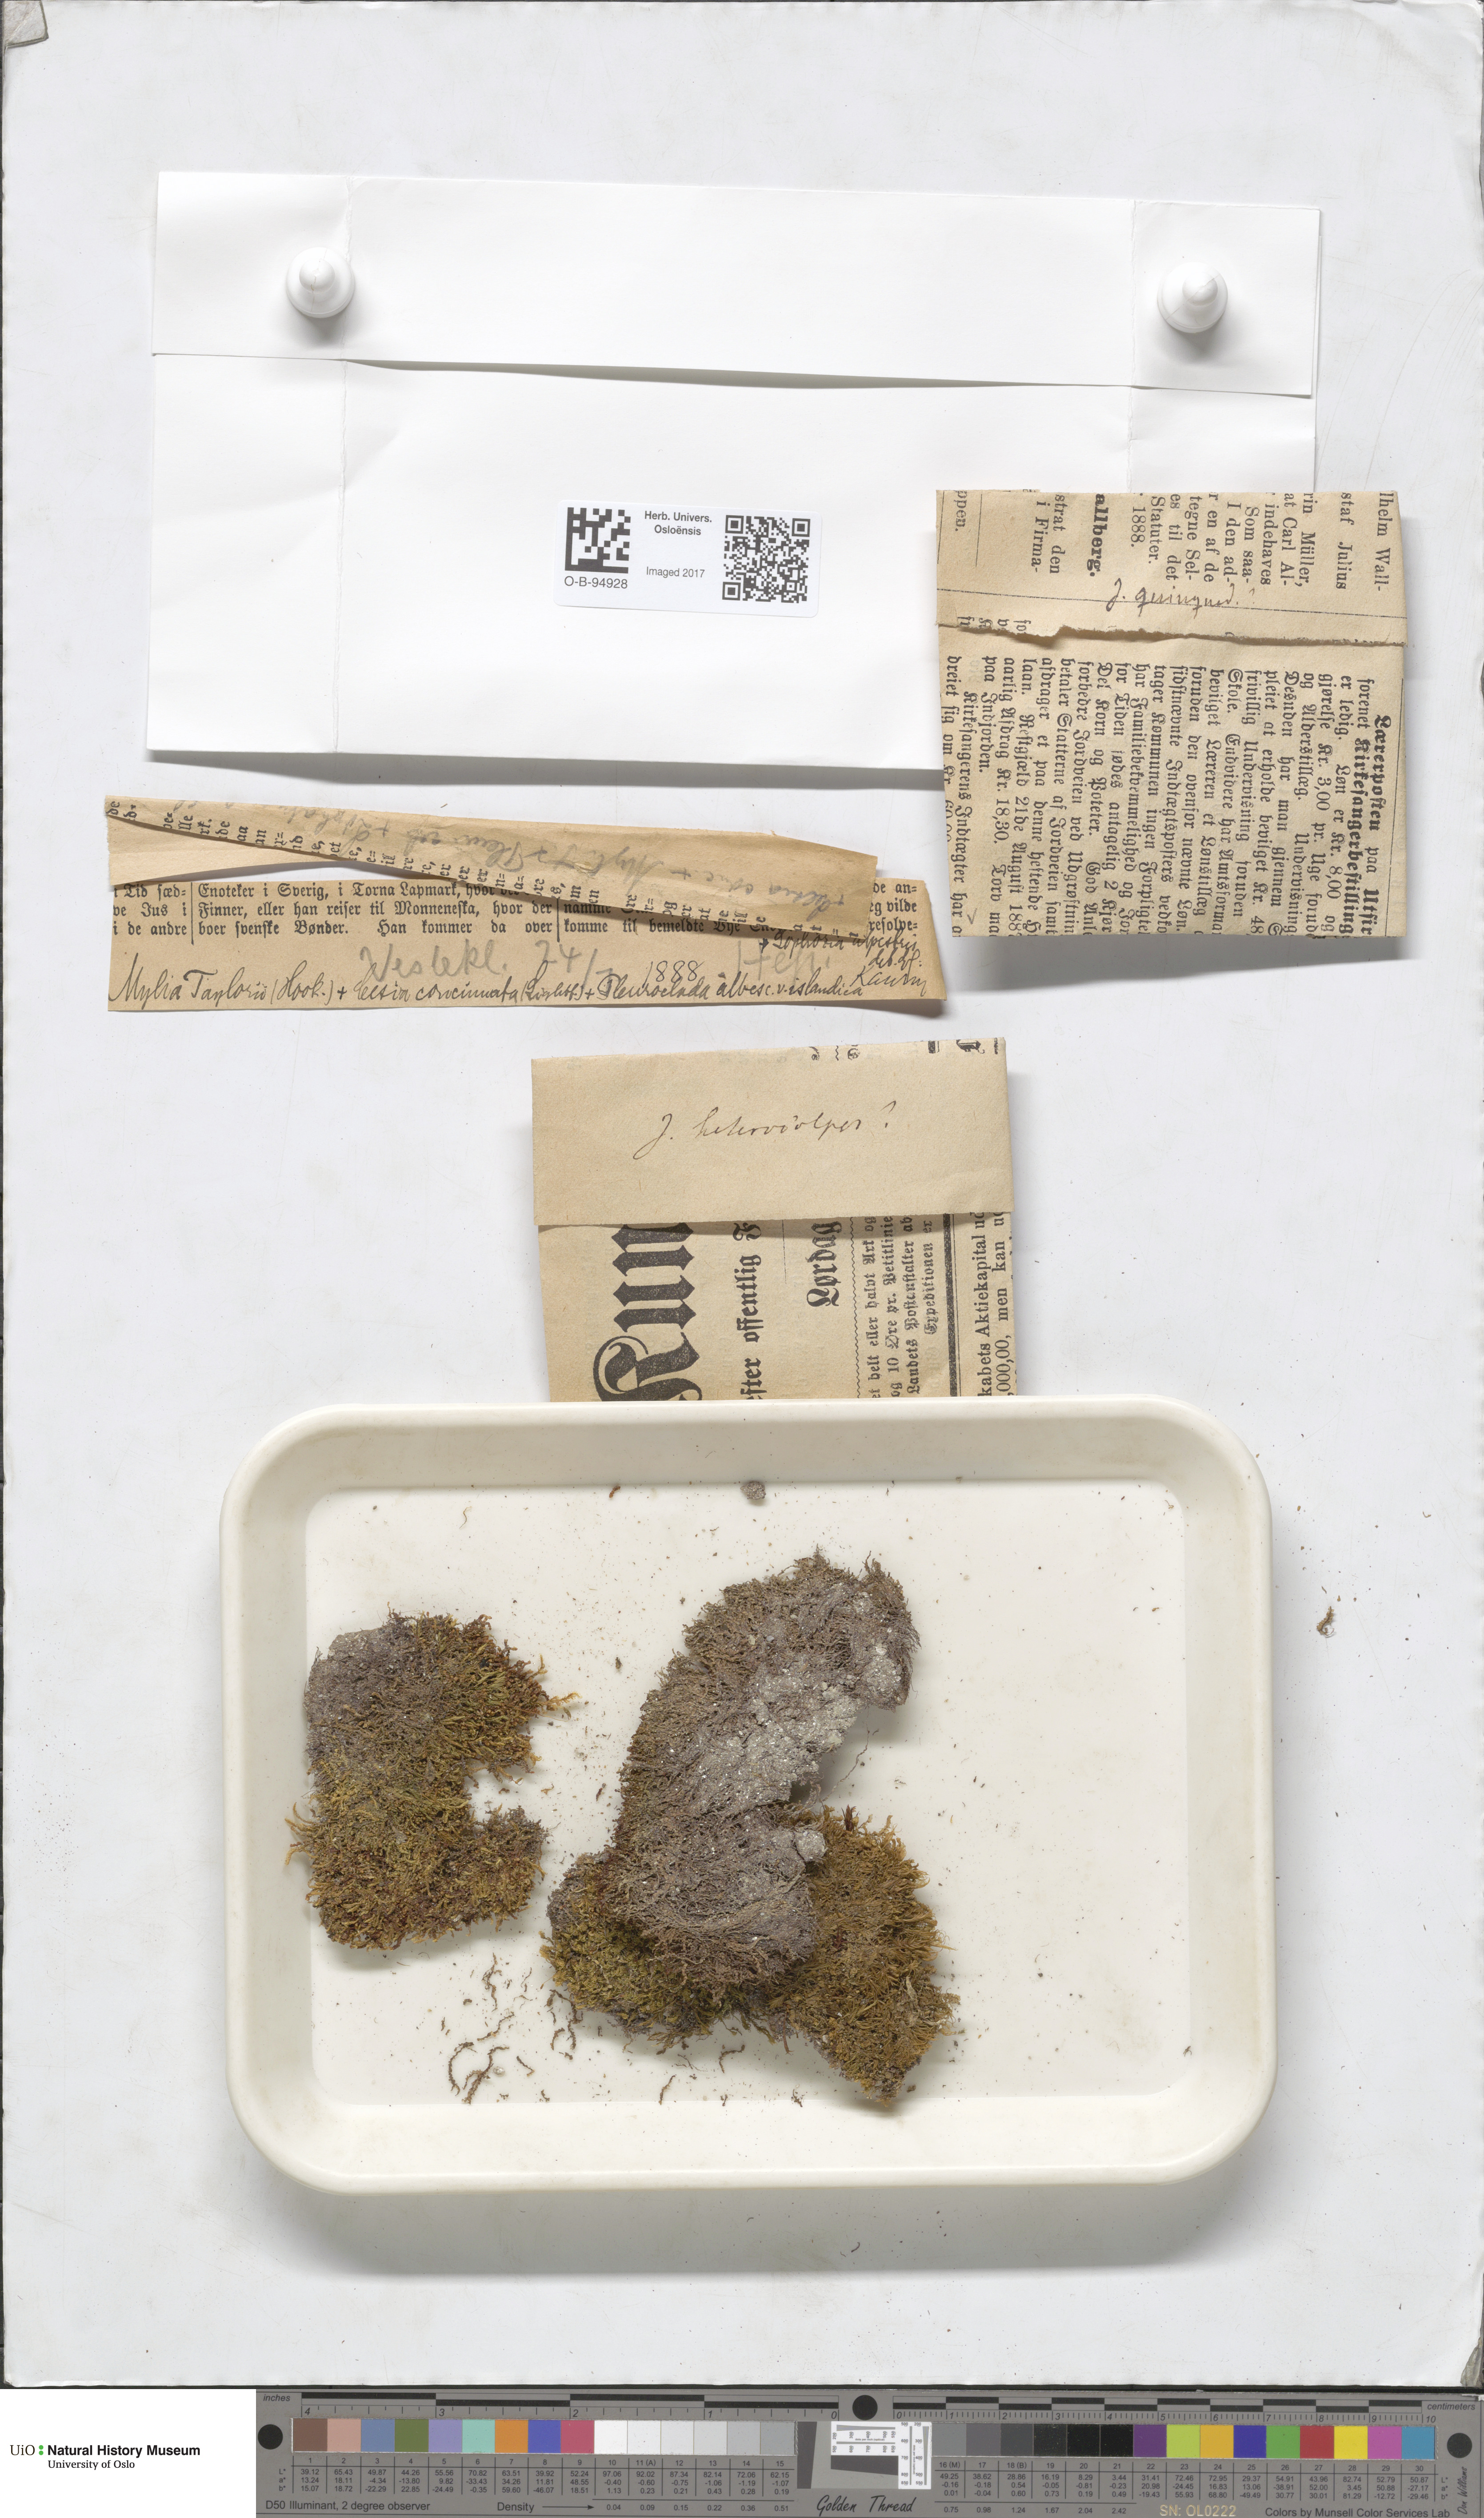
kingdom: Plantae
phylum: Marchantiophyta
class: Jungermanniopsida
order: Jungermanniales
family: Myliaceae
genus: Mylia
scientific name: Mylia taylorii
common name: Taylor s flapwort
